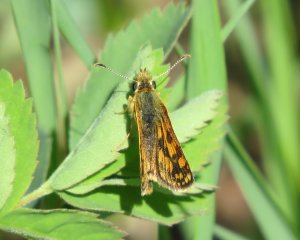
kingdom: Animalia
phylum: Arthropoda
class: Insecta
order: Lepidoptera
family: Hesperiidae
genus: Carterocephalus
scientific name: Carterocephalus palaemon
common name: Chequered Skipper
